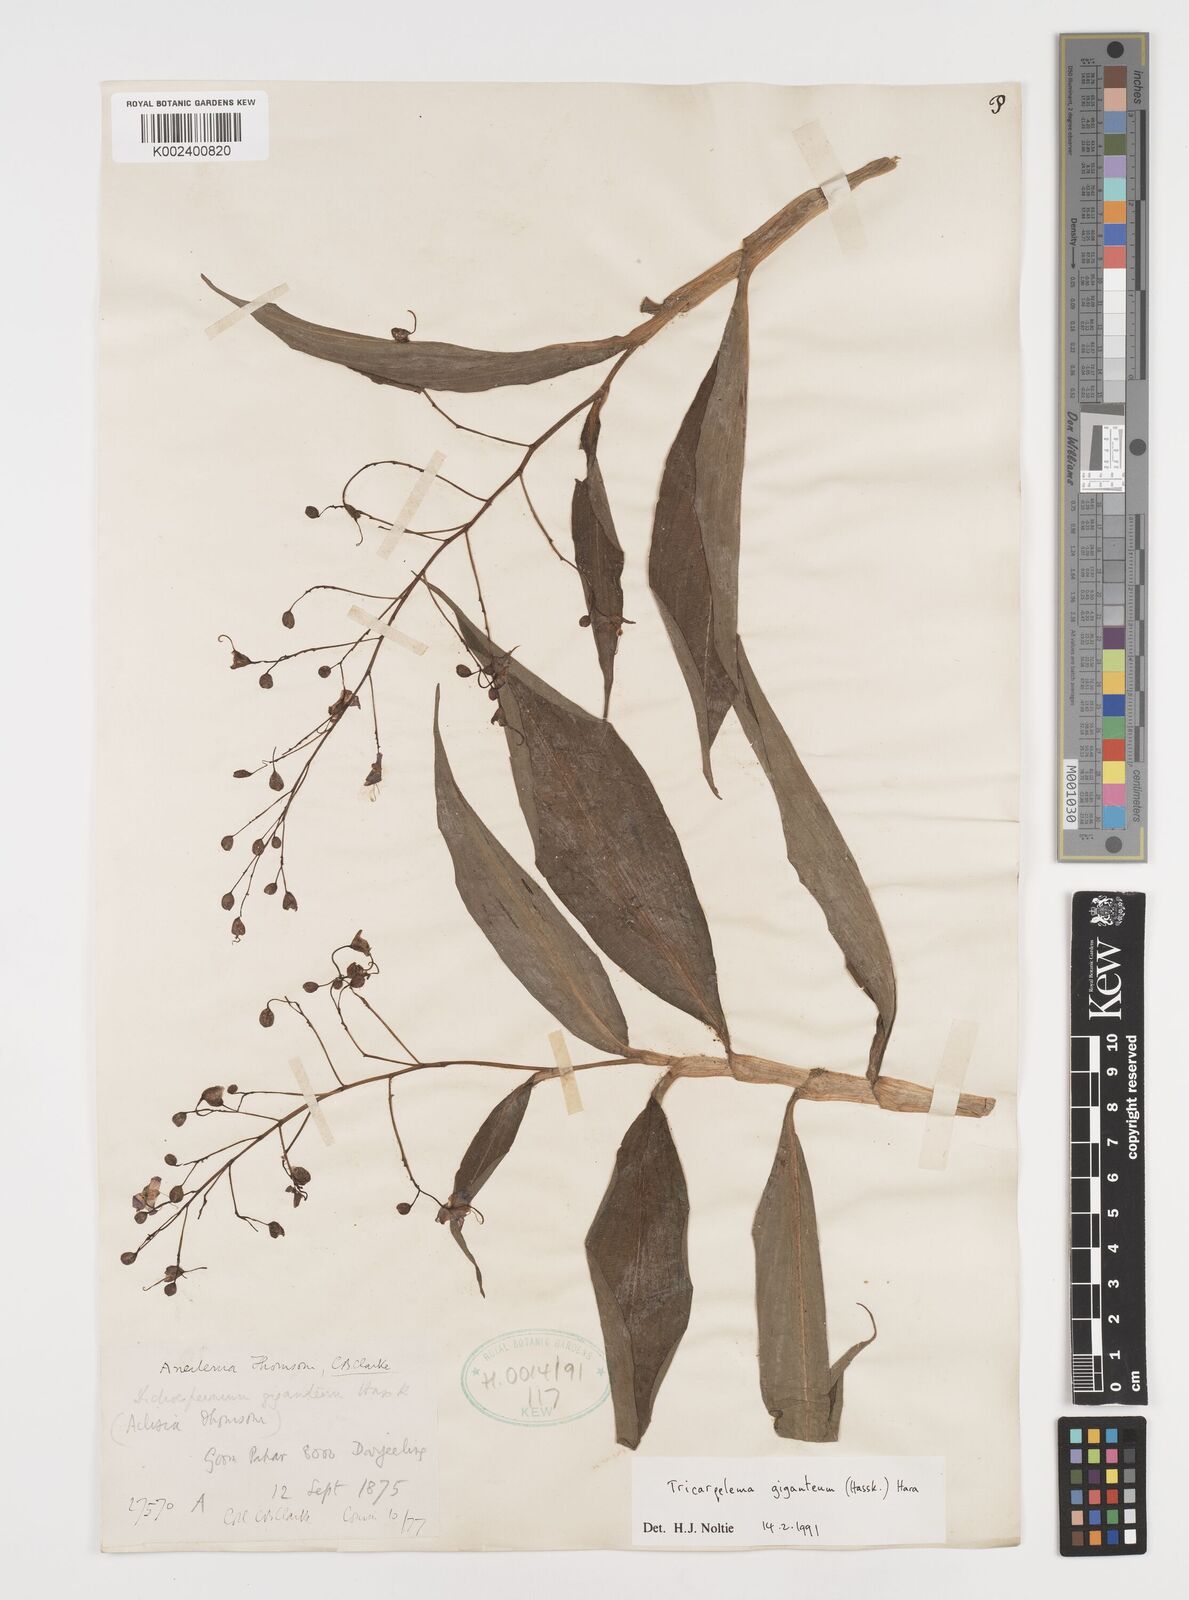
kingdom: Plantae
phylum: Tracheophyta
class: Liliopsida
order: Commelinales
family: Commelinaceae
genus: Tricarpelema
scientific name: Tricarpelema giganteum
